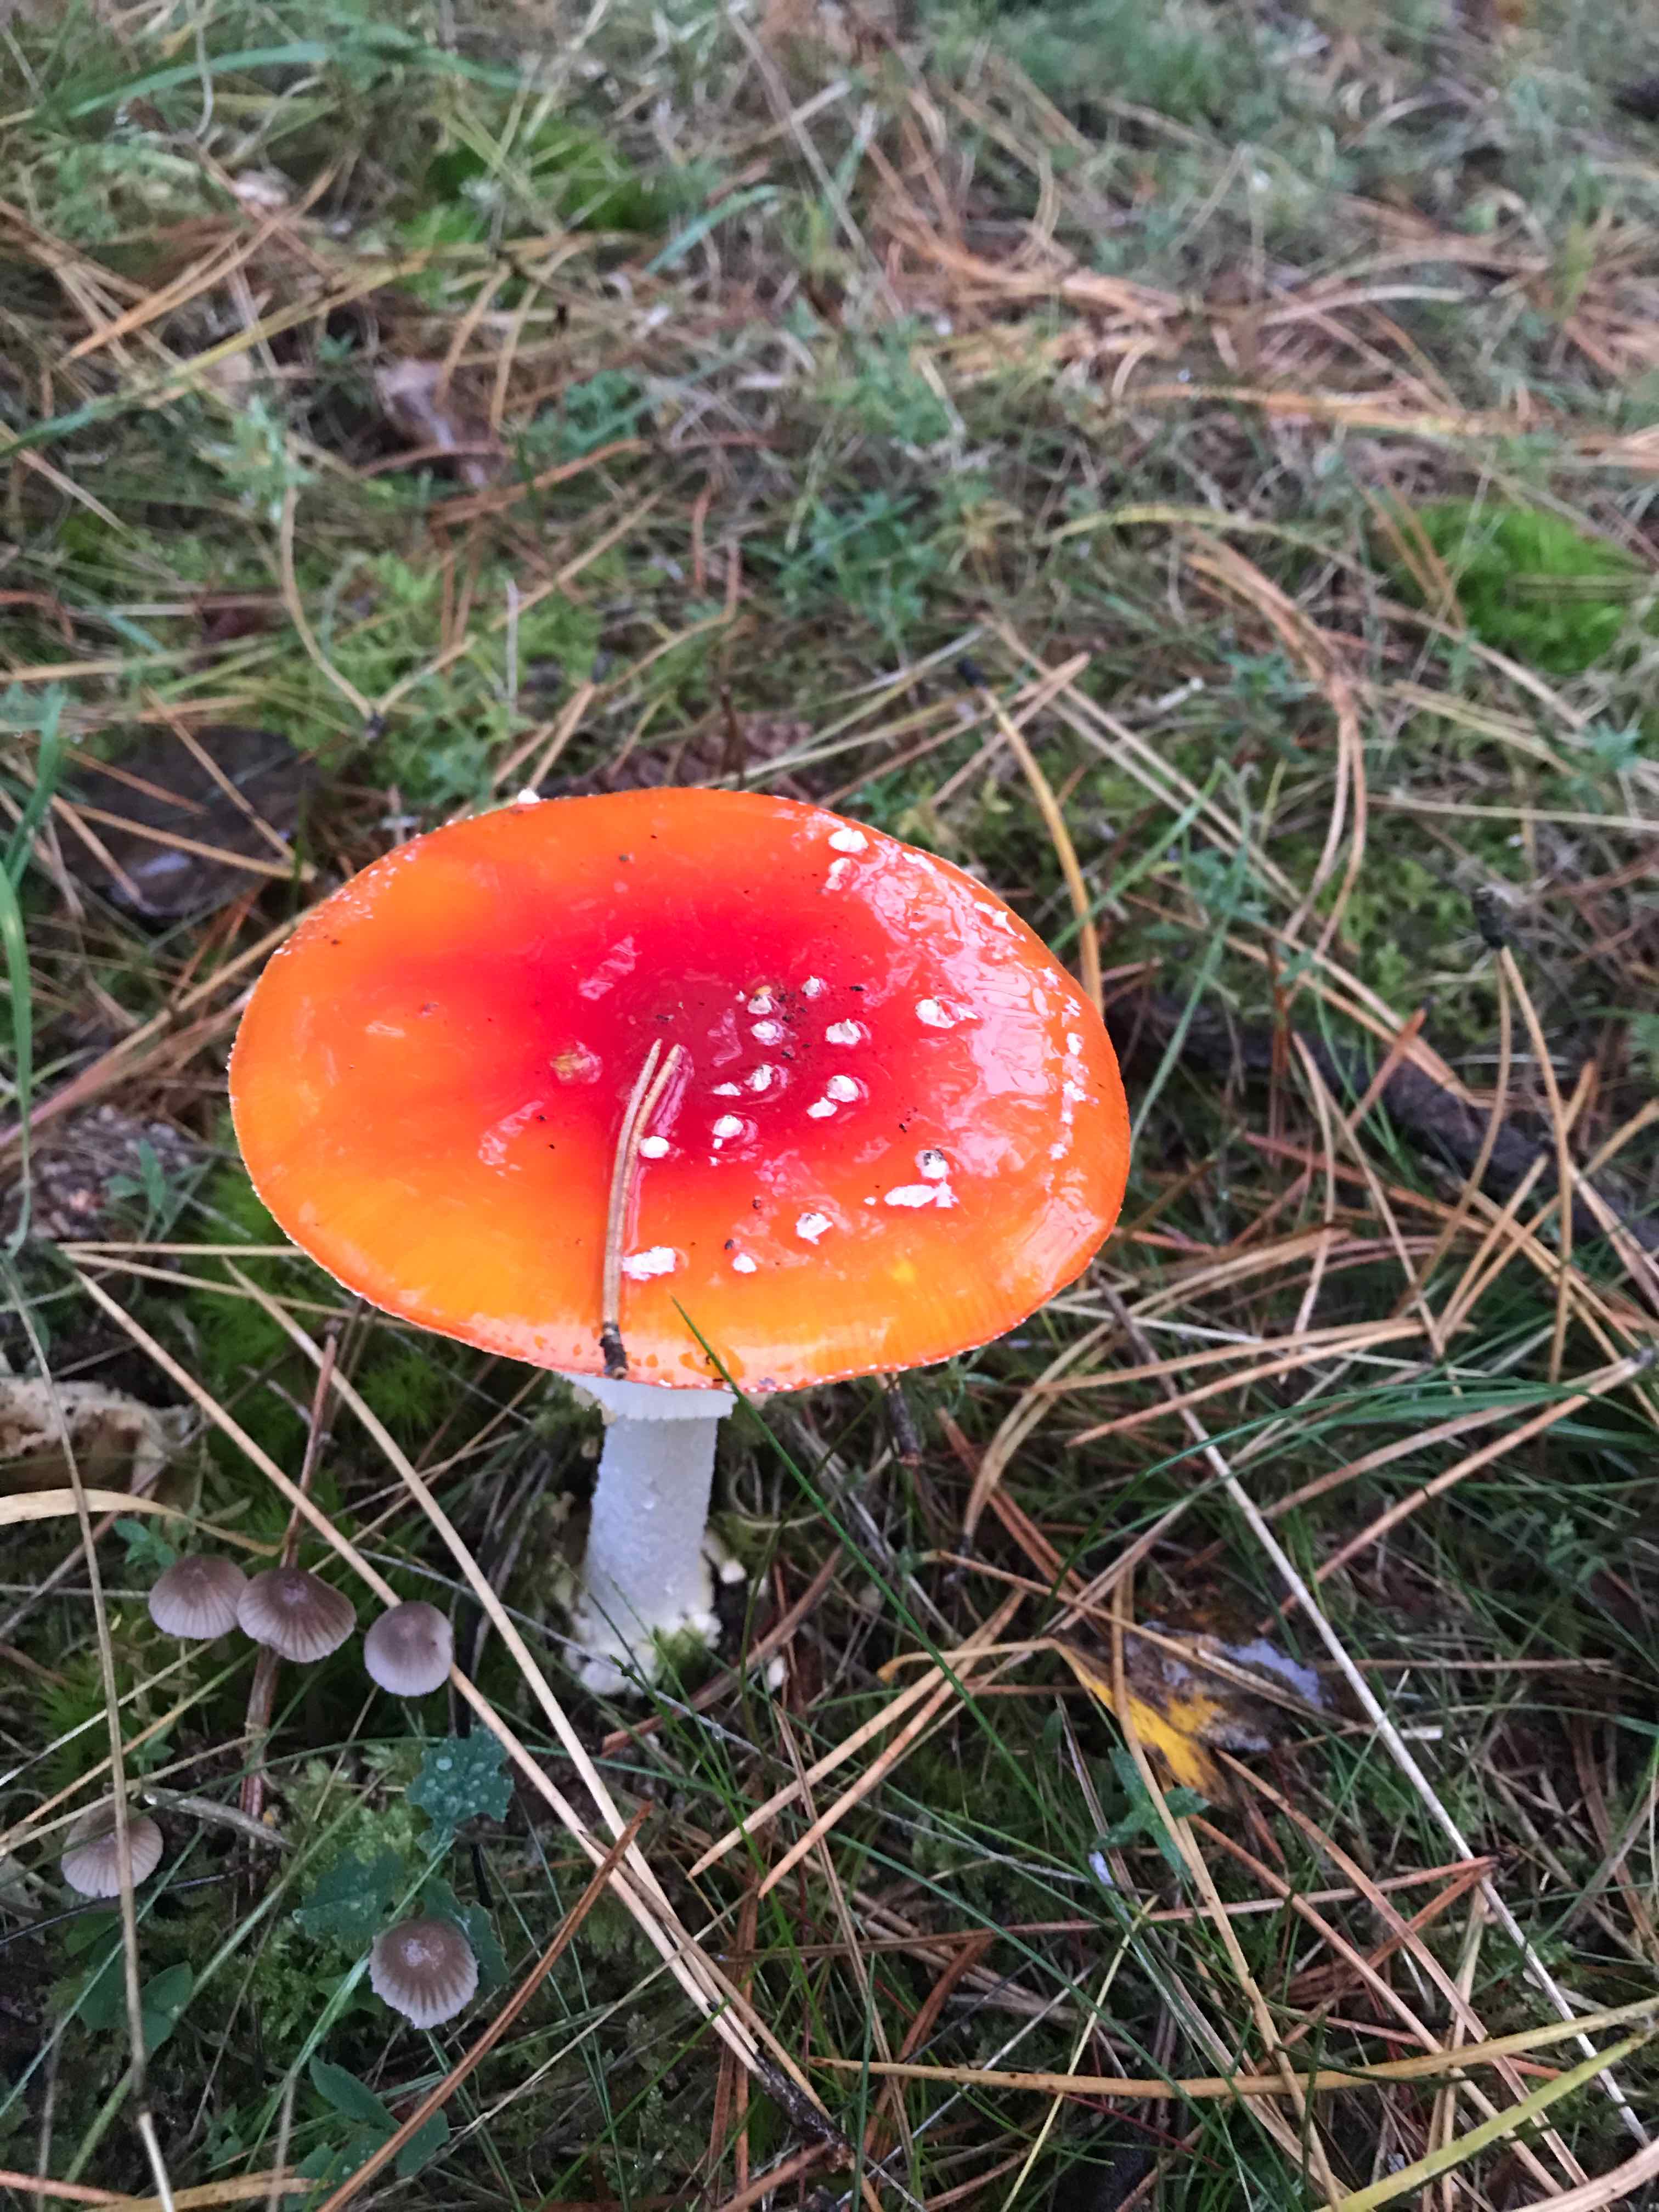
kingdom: Fungi
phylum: Basidiomycota
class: Agaricomycetes
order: Agaricales
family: Amanitaceae
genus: Amanita
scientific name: Amanita muscaria
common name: rød fluesvamp
